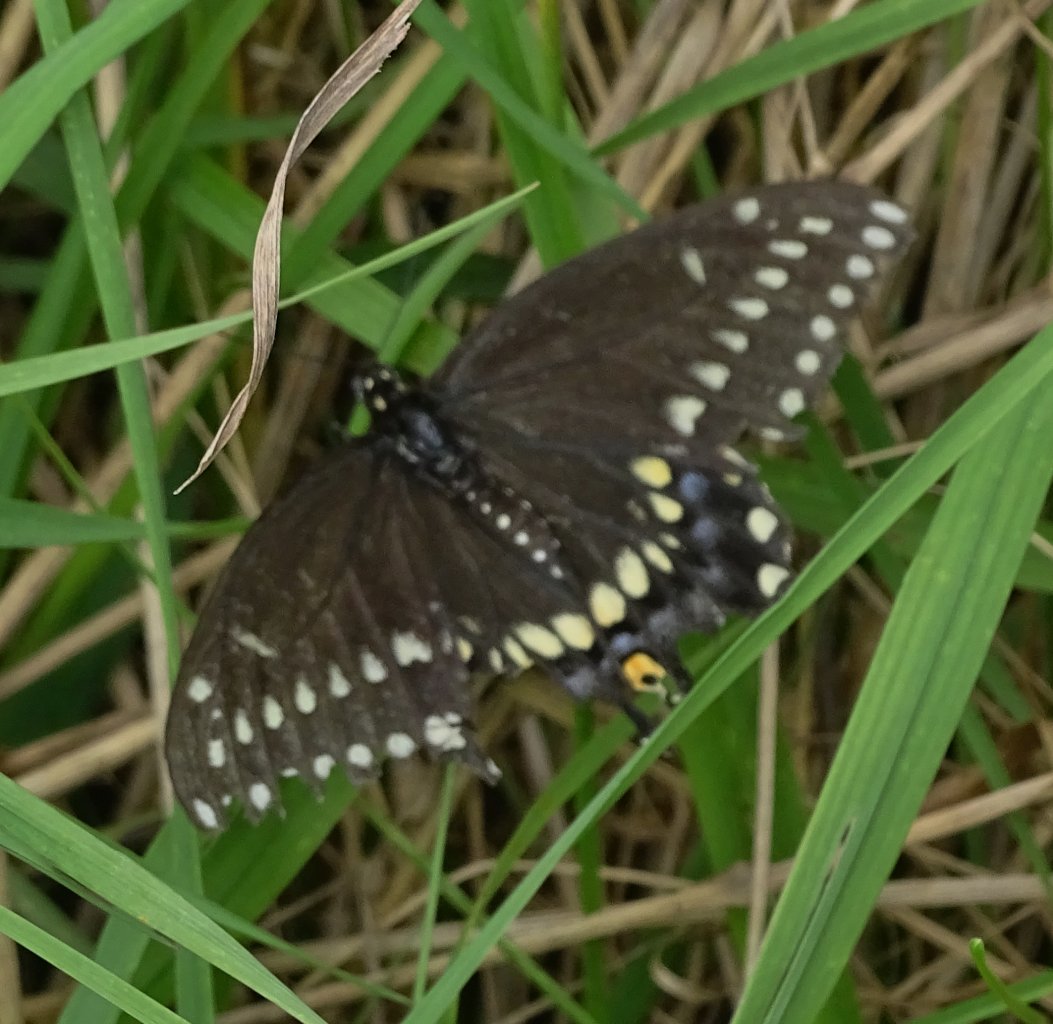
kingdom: Animalia
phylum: Arthropoda
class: Insecta
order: Lepidoptera
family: Papilionidae
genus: Papilio
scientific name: Papilio polyxenes
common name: Black Swallowtail
